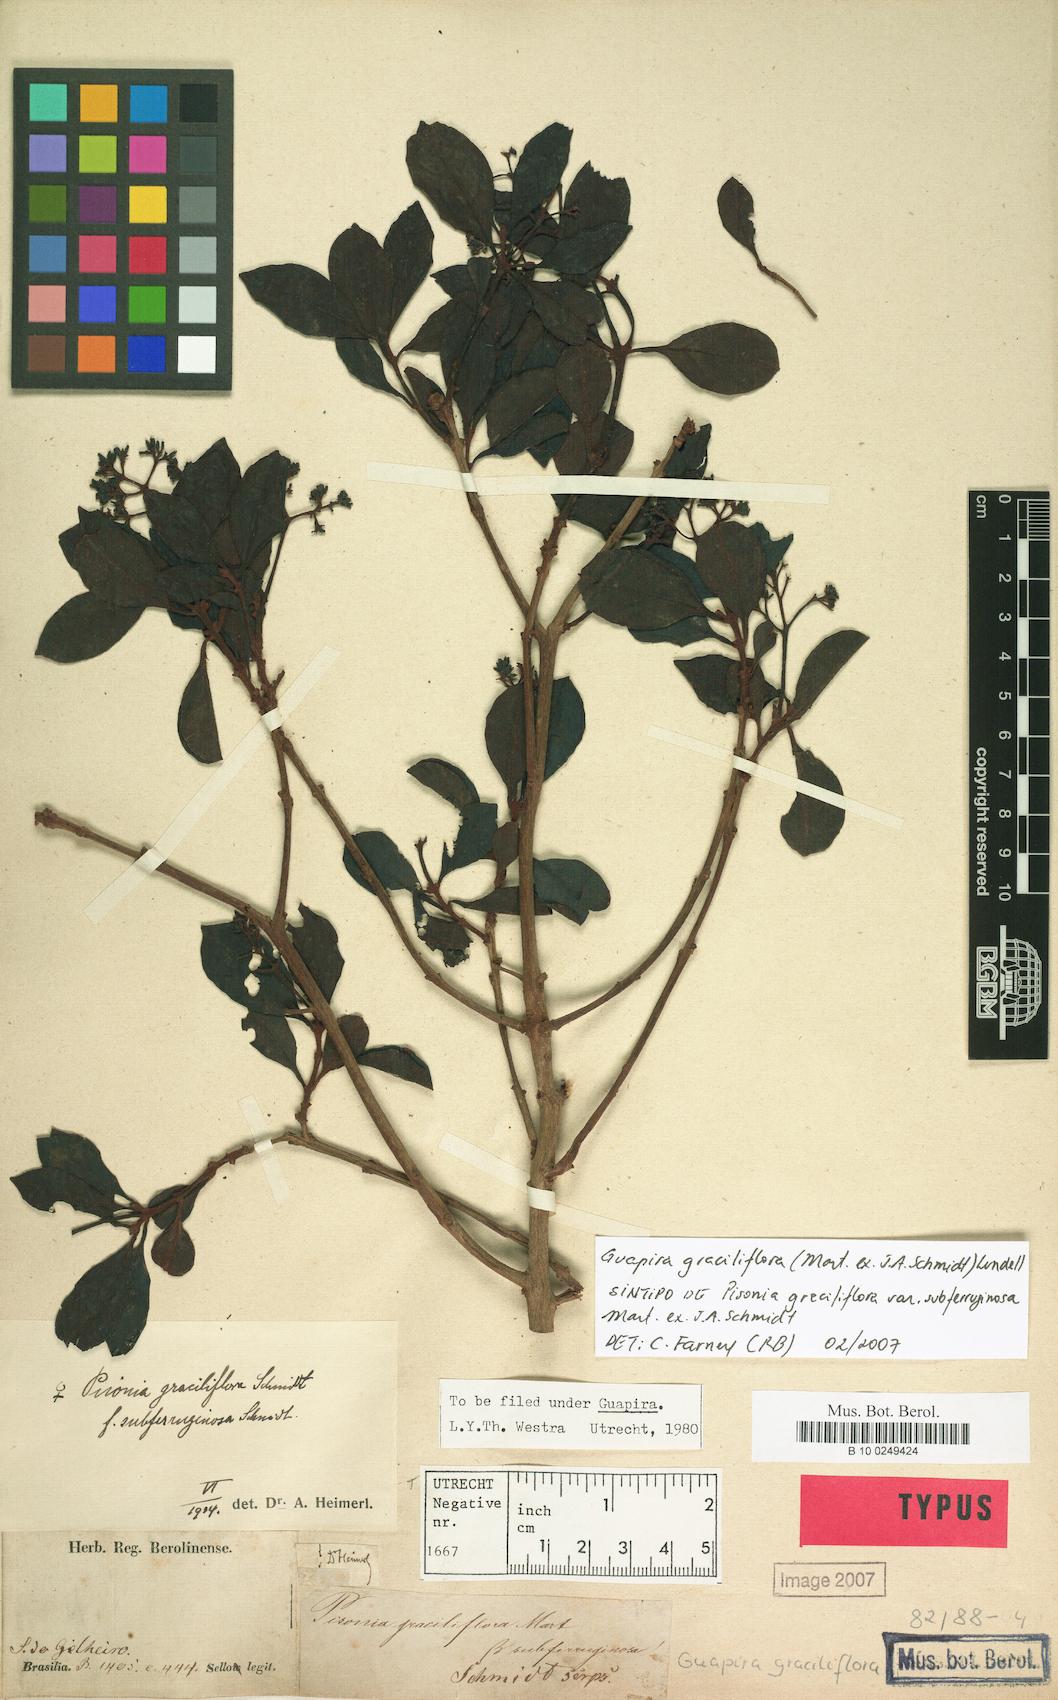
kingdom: Plantae
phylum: Tracheophyta
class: Magnoliopsida
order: Caryophyllales
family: Nyctaginaceae
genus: Guapira
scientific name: Guapira graciliflora
